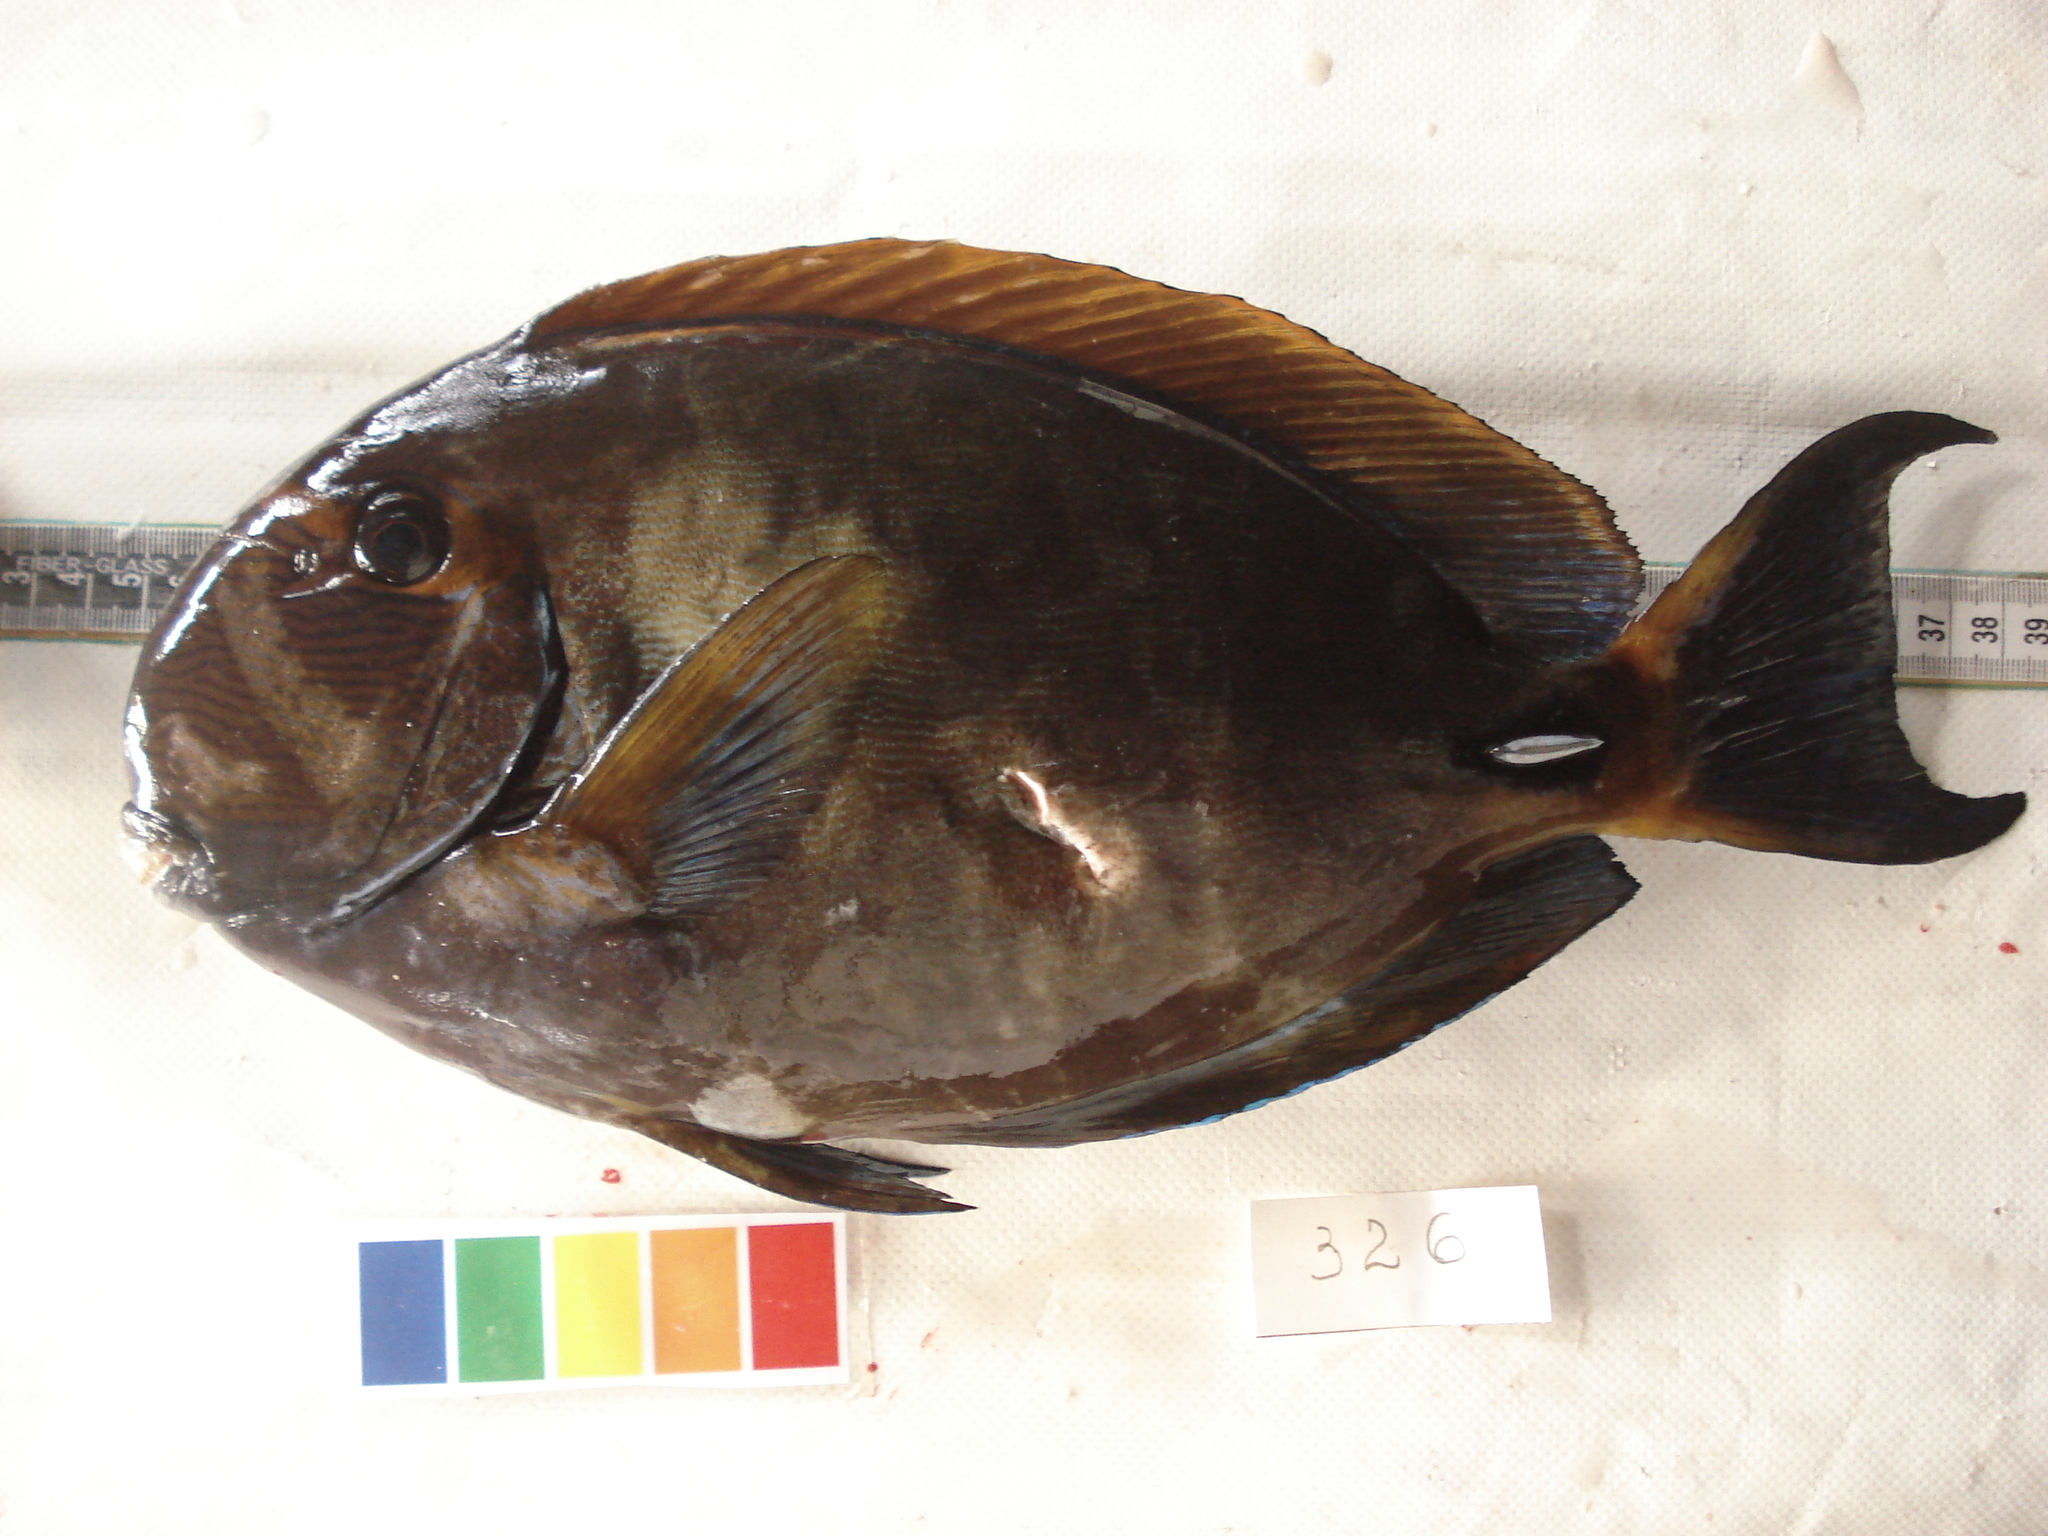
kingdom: Animalia
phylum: Chordata
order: Perciformes
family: Acanthuridae
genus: Acanthurus
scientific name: Acanthurus dussumieri
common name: Dussumier's surgeonfish
